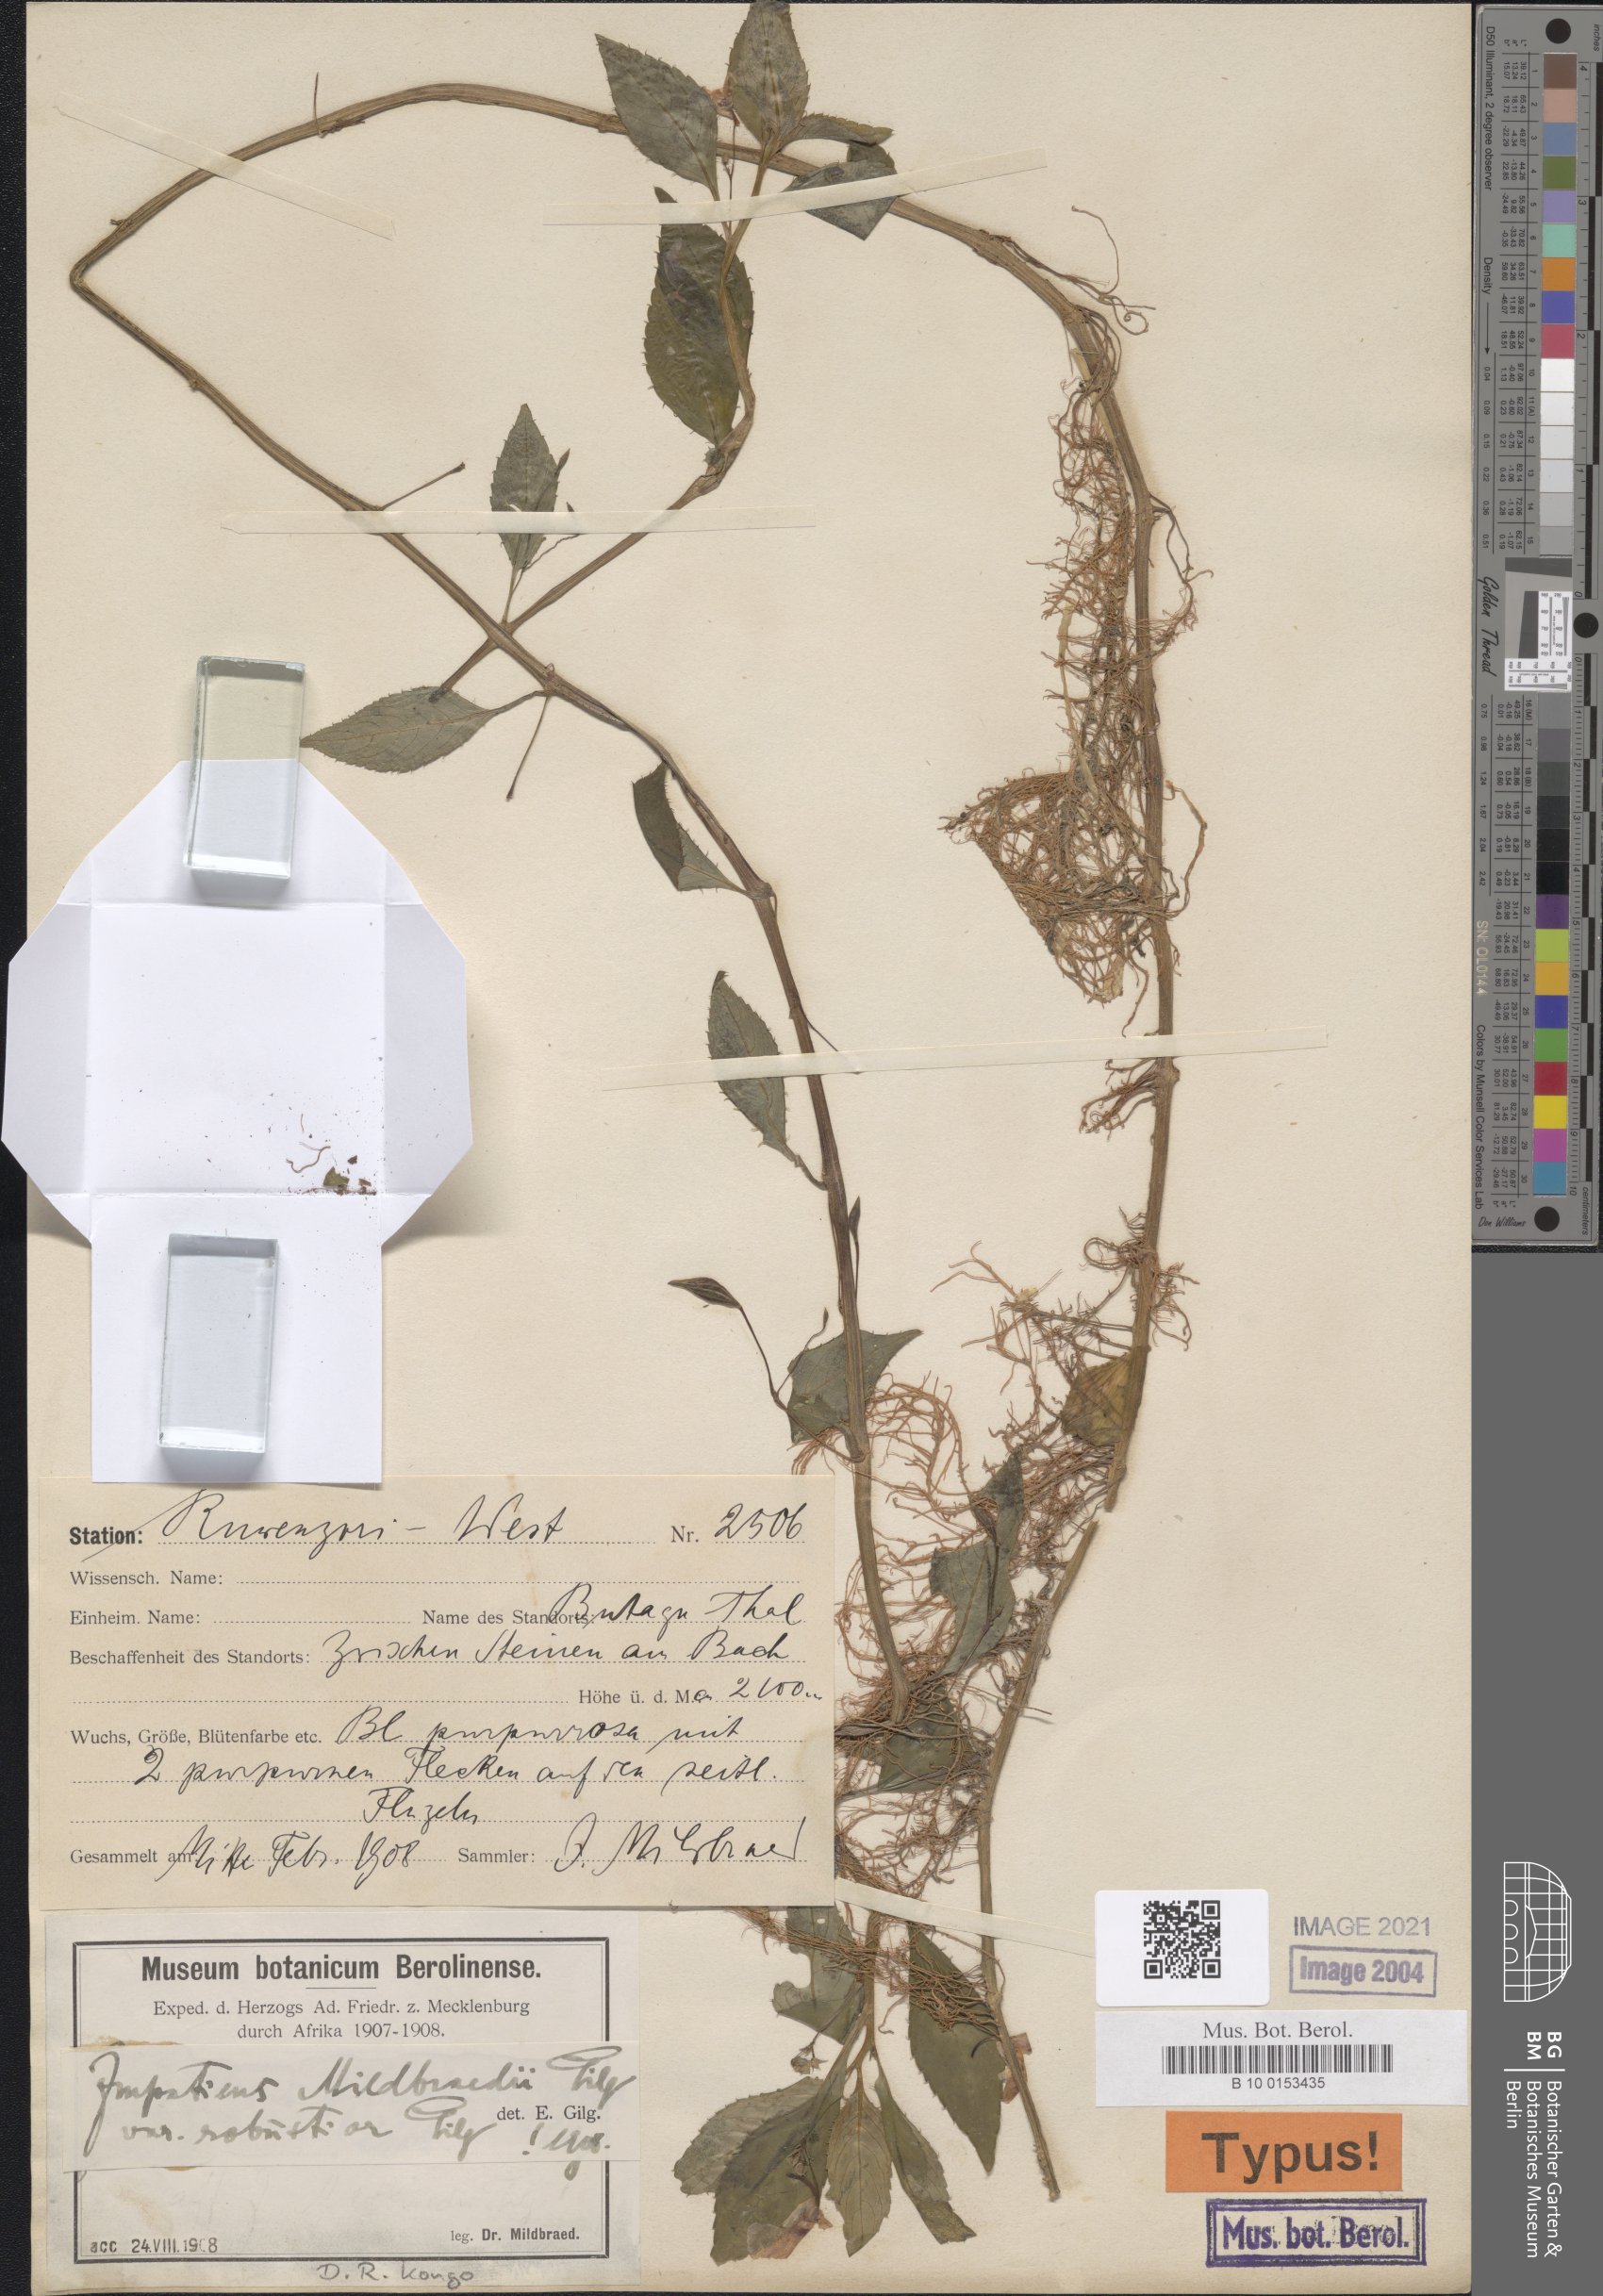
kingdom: Plantae
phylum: Tracheophyta
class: Magnoliopsida
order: Ericales
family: Balsaminaceae
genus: Impatiens
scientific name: Impatiens mildbraedii
